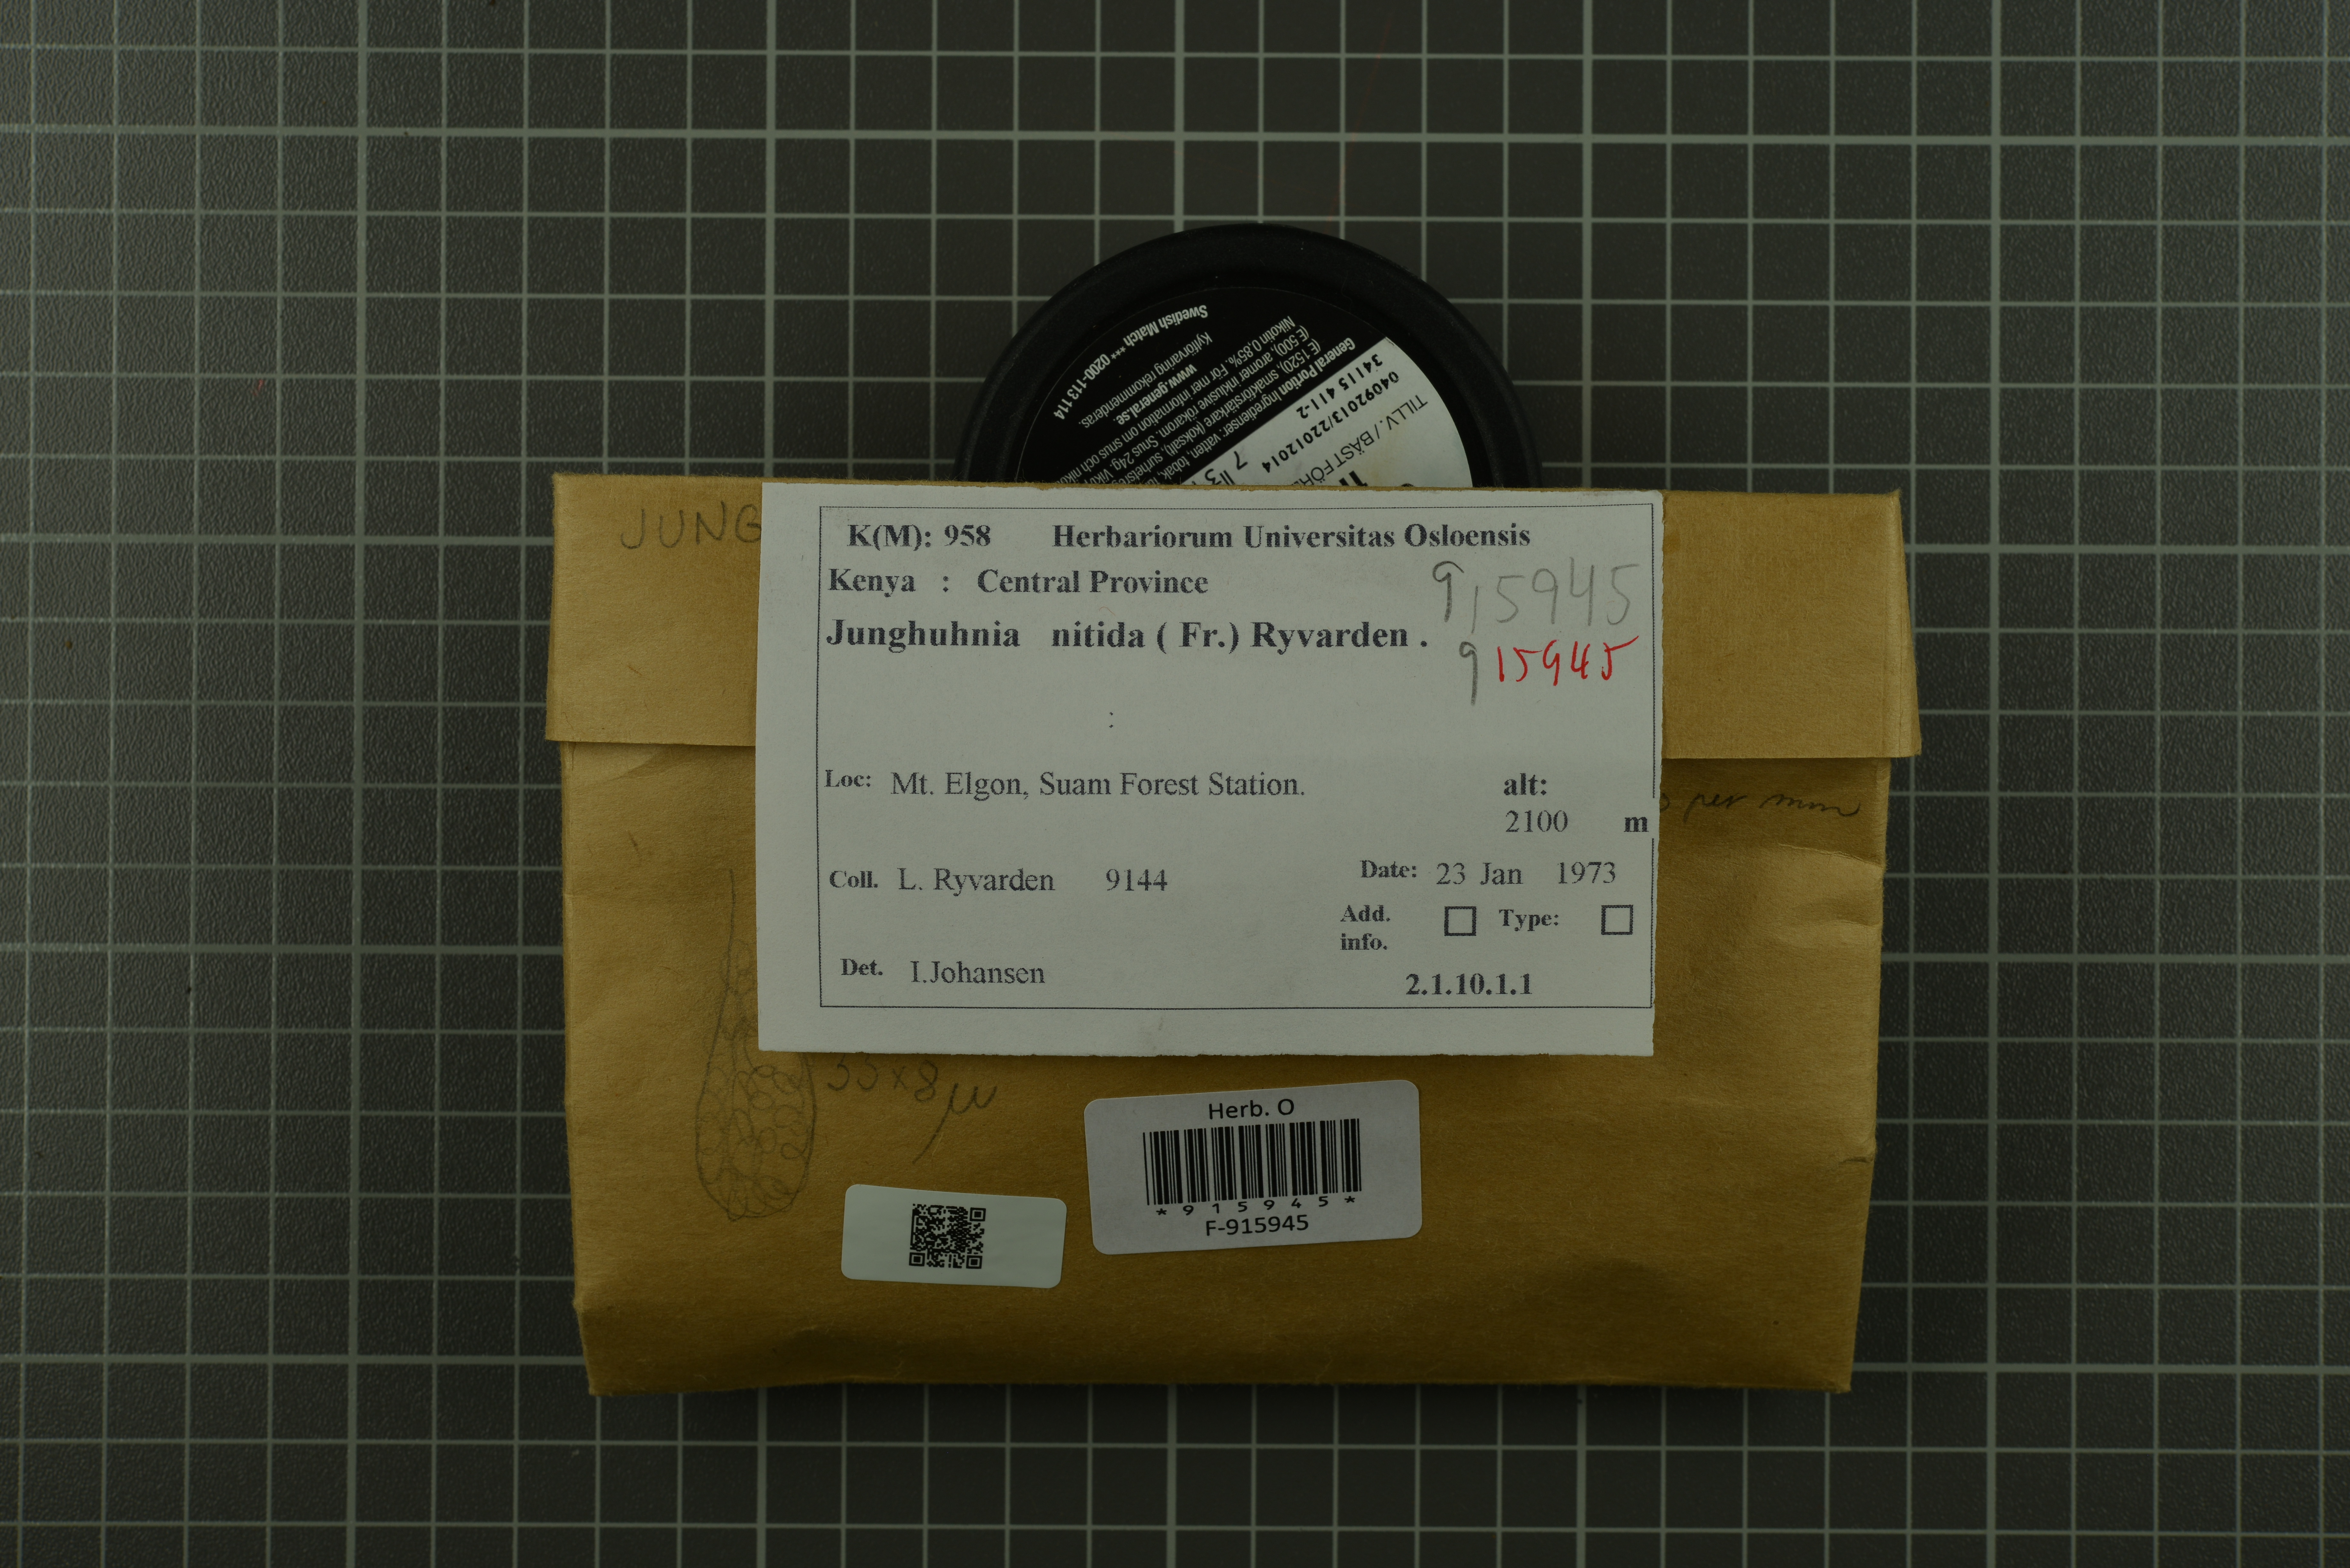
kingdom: Fungi
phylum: Basidiomycota
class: Agaricomycetes
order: Polyporales
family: Steccherinaceae
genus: Junghuhnia
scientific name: Junghuhnia nitida
